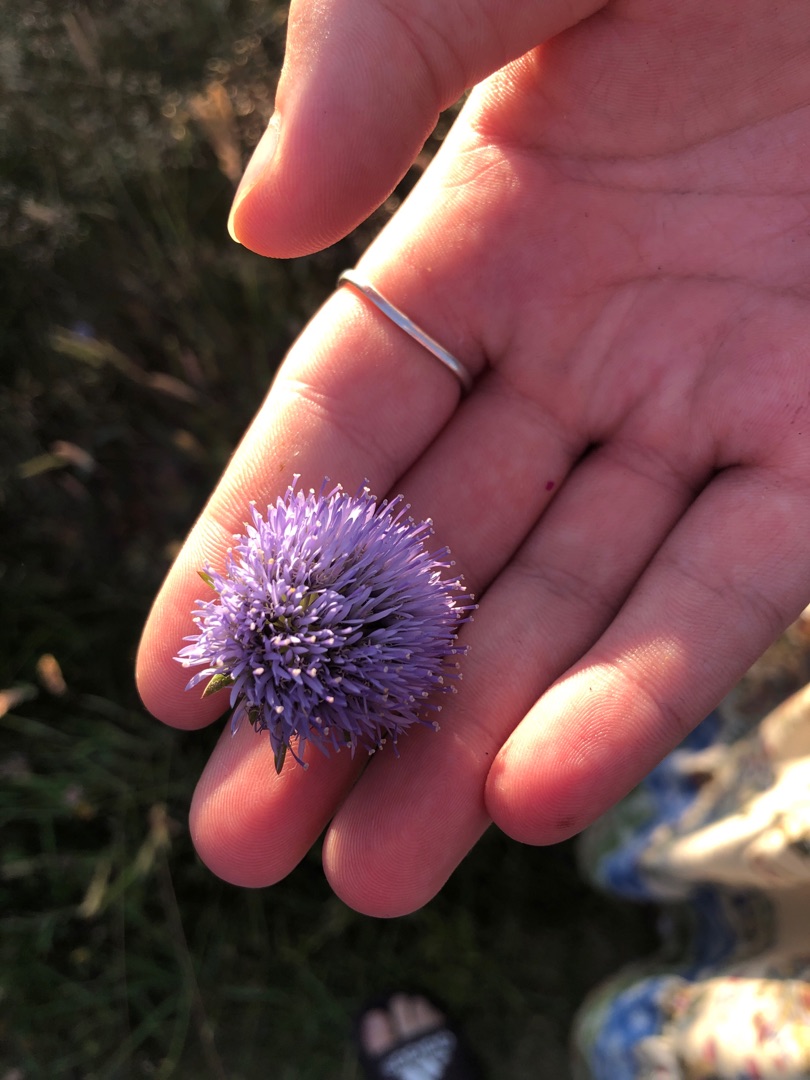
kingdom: Plantae
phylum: Tracheophyta
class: Magnoliopsida
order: Asterales
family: Campanulaceae
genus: Jasione
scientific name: Jasione montana
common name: Blåmunke
